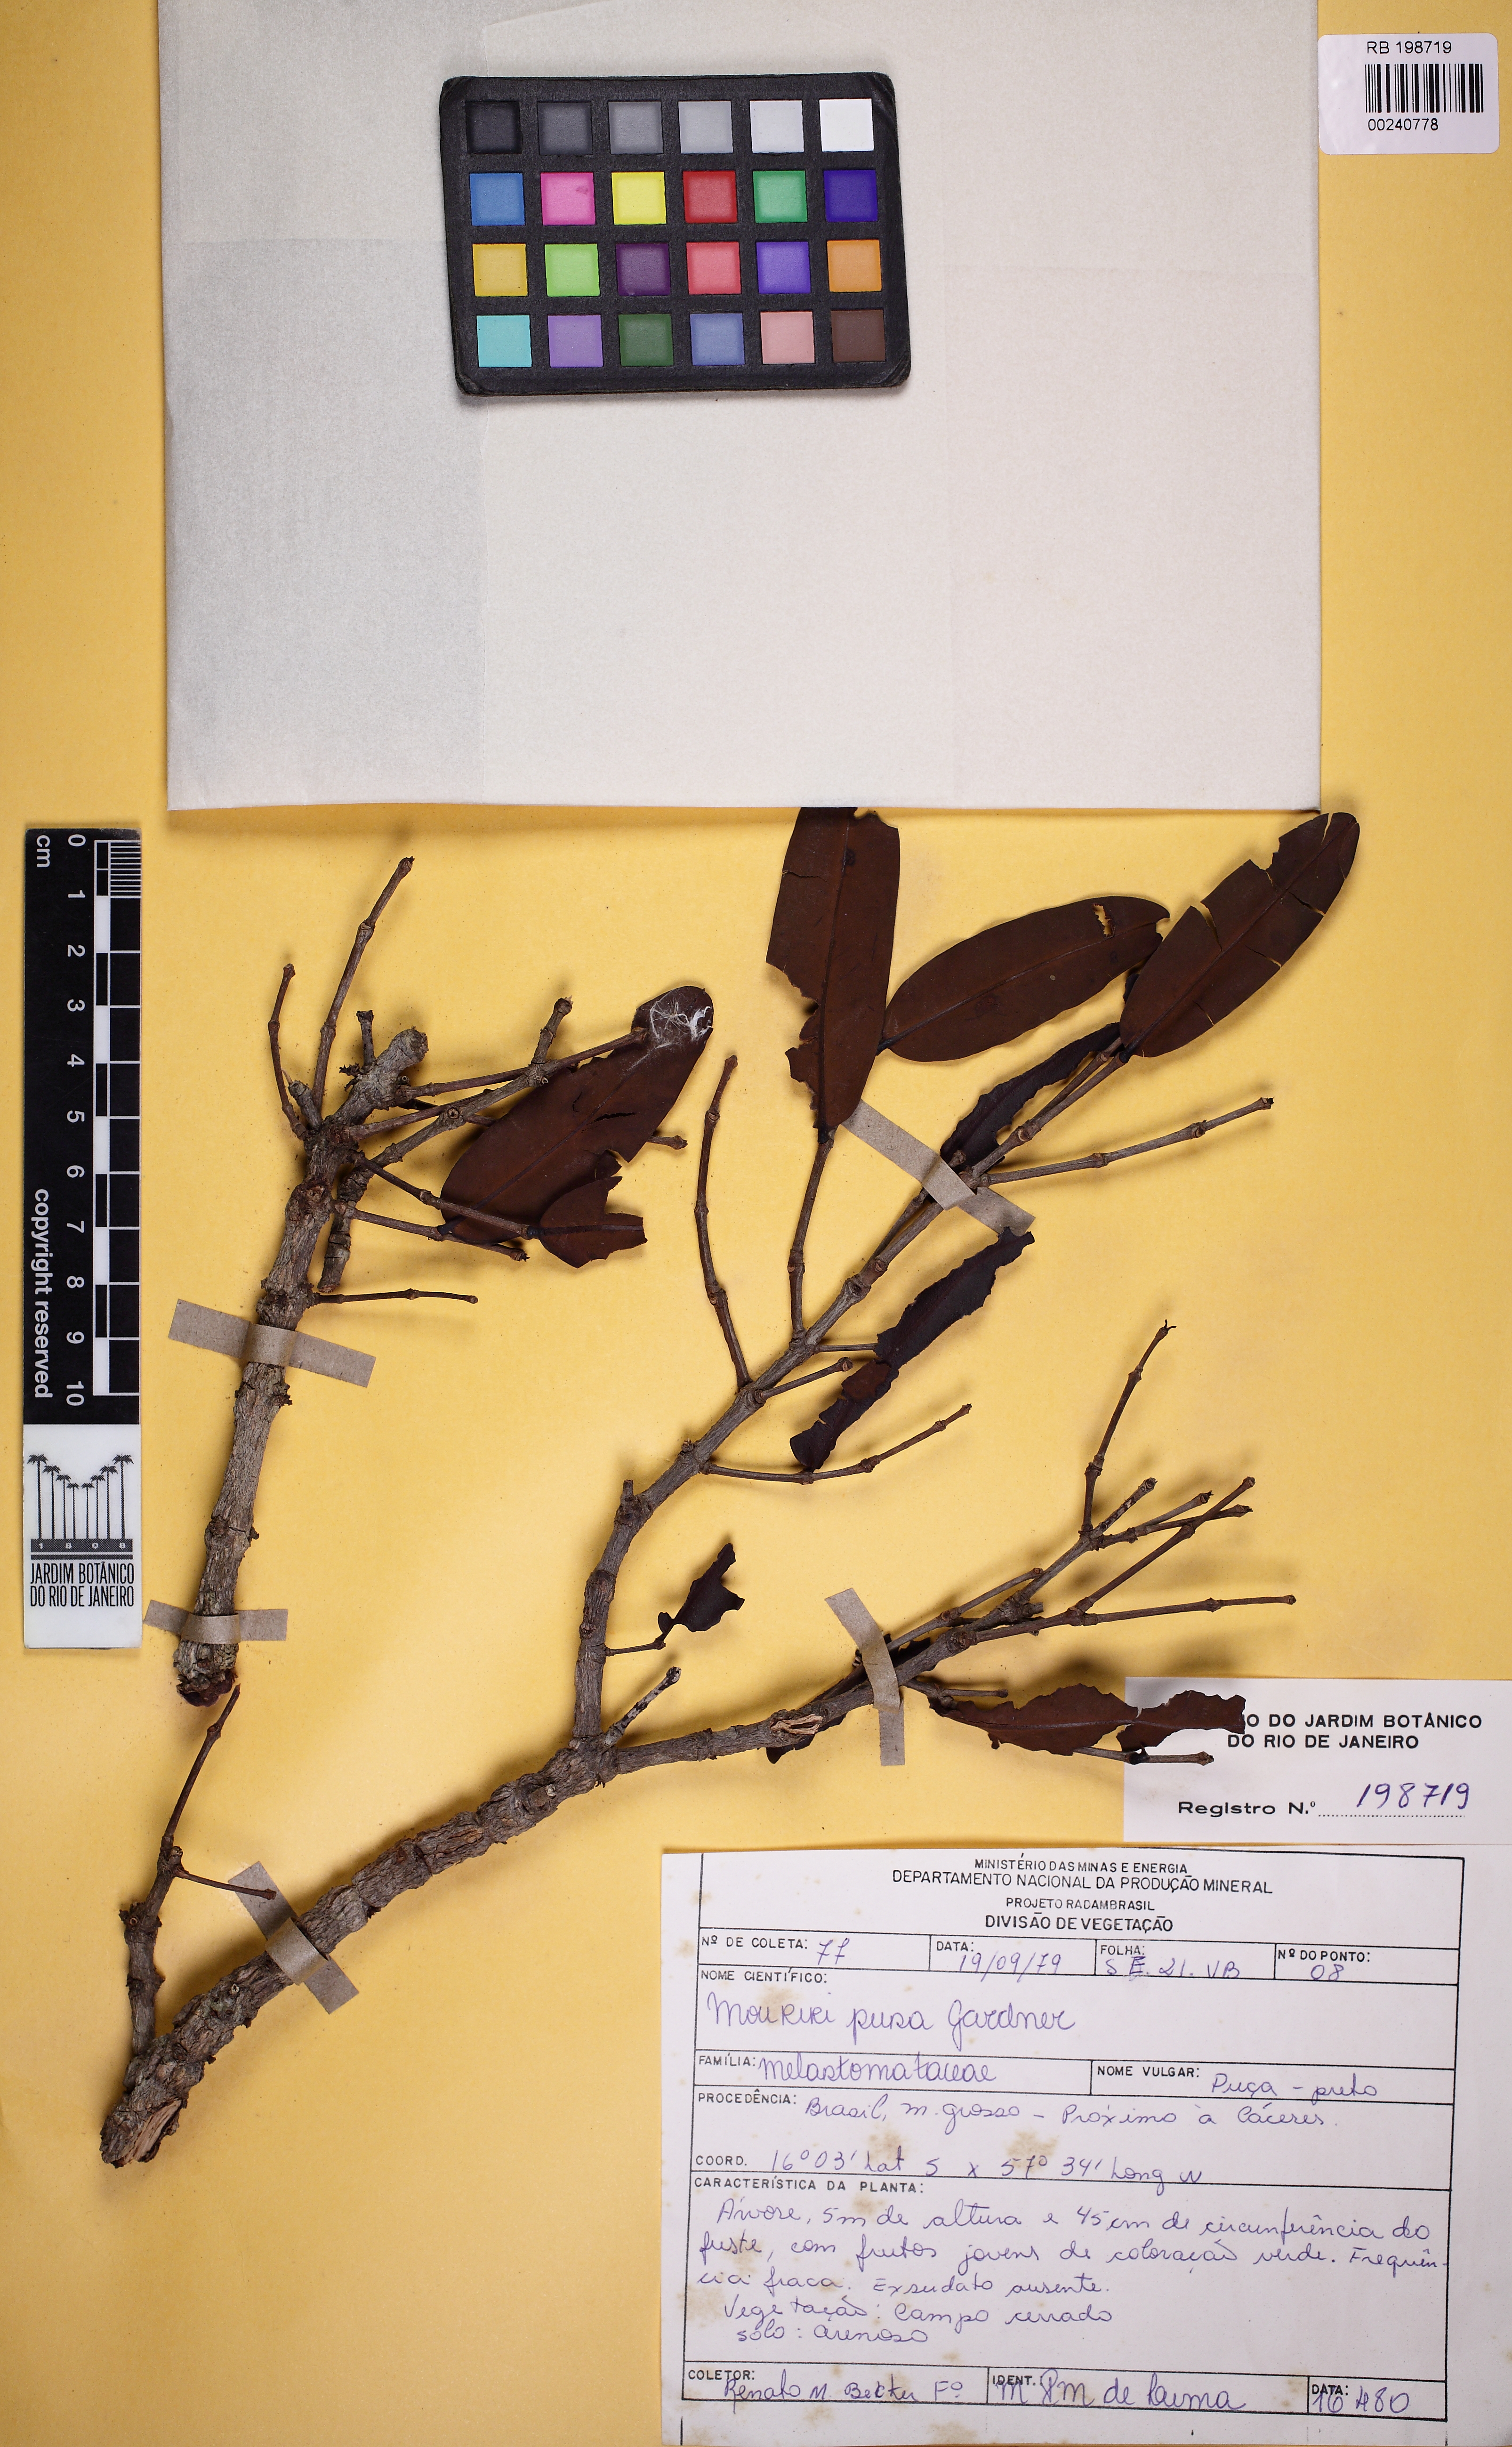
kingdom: Plantae
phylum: Tracheophyta
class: Magnoliopsida
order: Myrtales
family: Melastomataceae
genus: Mouriri
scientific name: Mouriri pusa
